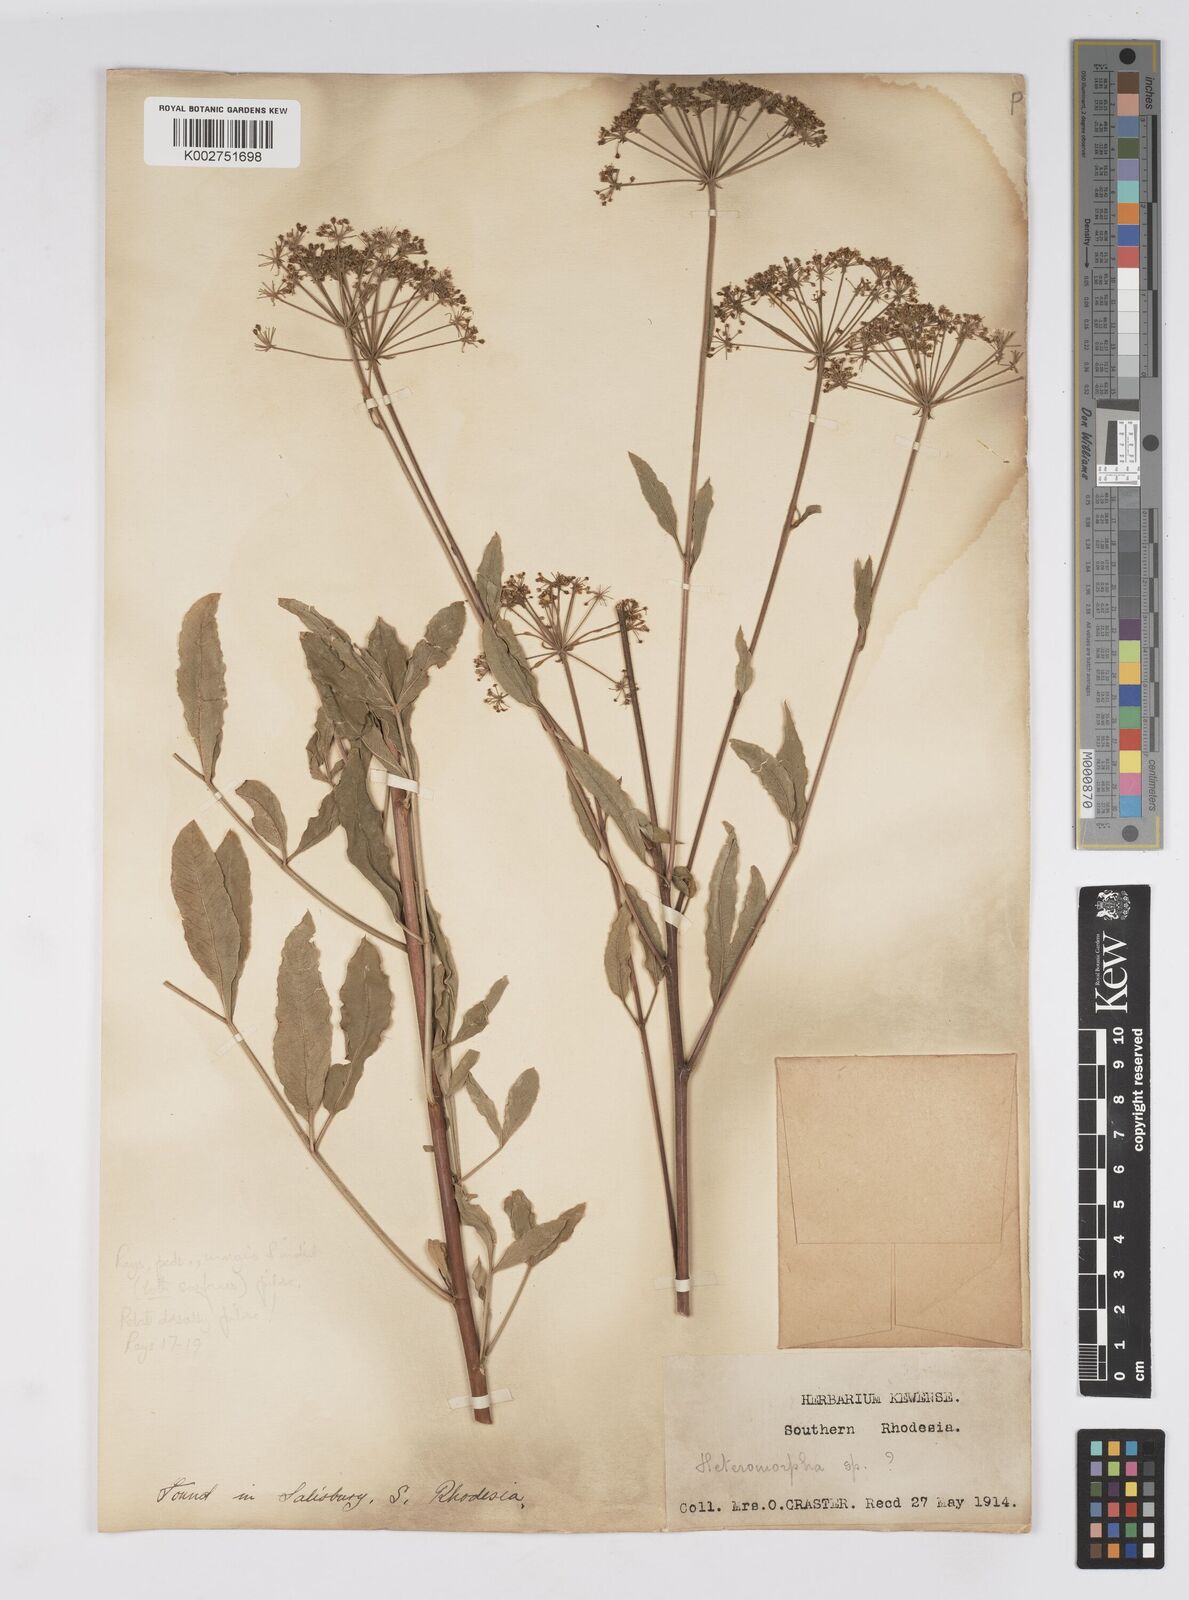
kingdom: Plantae
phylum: Tracheophyta
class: Magnoliopsida
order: Apiales
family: Apiaceae
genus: Heteromorpha
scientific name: Heteromorpha stenophylla
